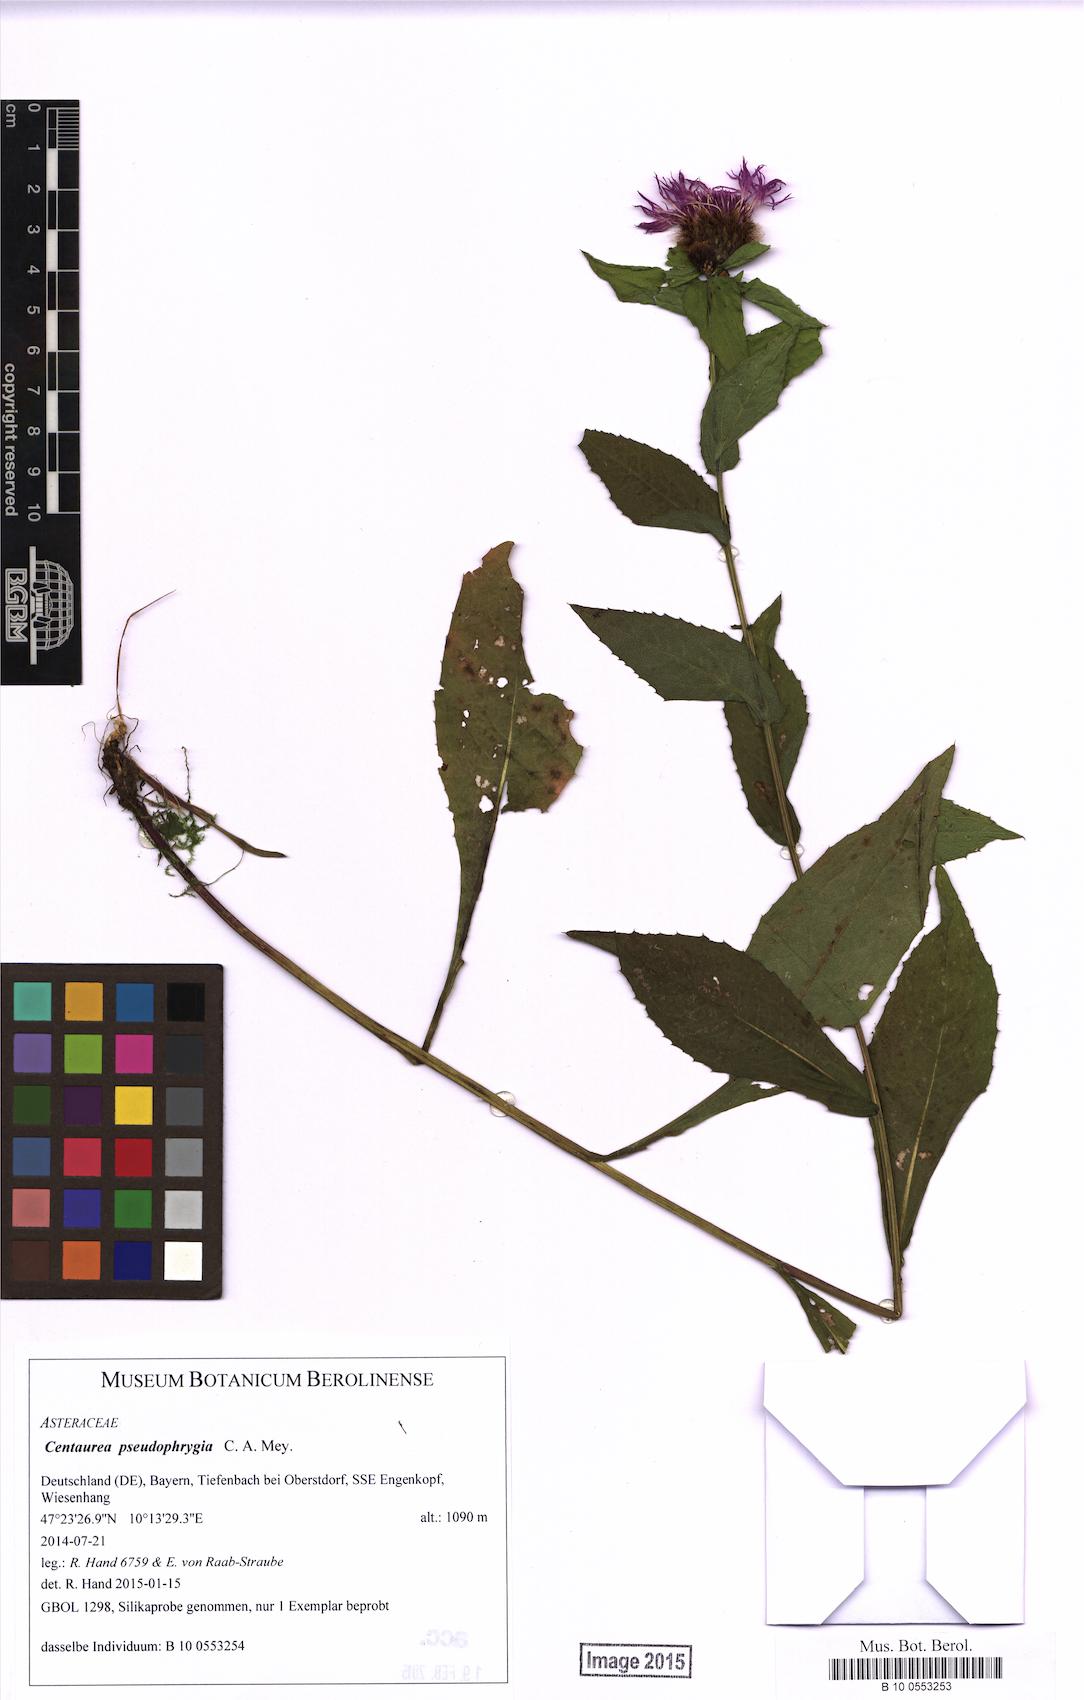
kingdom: Plantae
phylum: Tracheophyta
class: Magnoliopsida
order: Asterales
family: Asteraceae
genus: Centaurea
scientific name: Centaurea pseudophrygia
